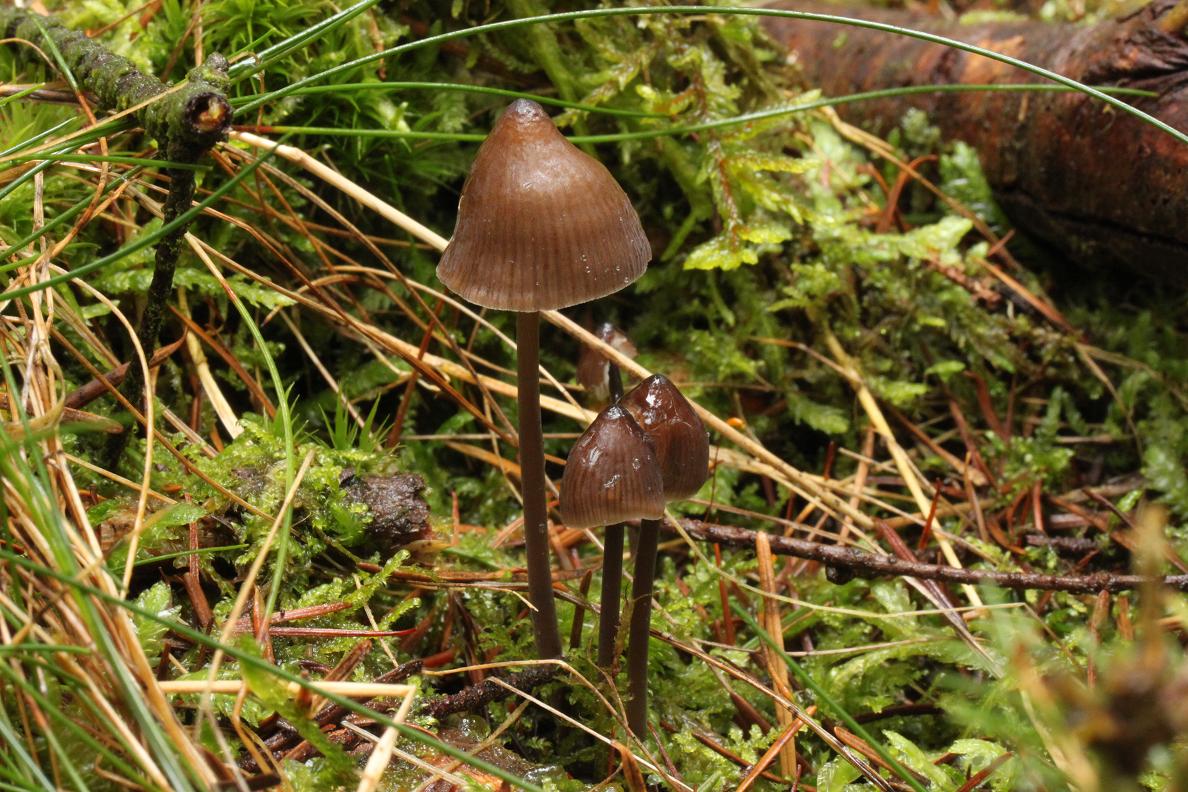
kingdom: Fungi
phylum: Basidiomycota
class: Agaricomycetes
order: Agaricales
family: Mycenaceae
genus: Mycena
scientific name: Mycena silvae-nigrae
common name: tidlig huesvamp
